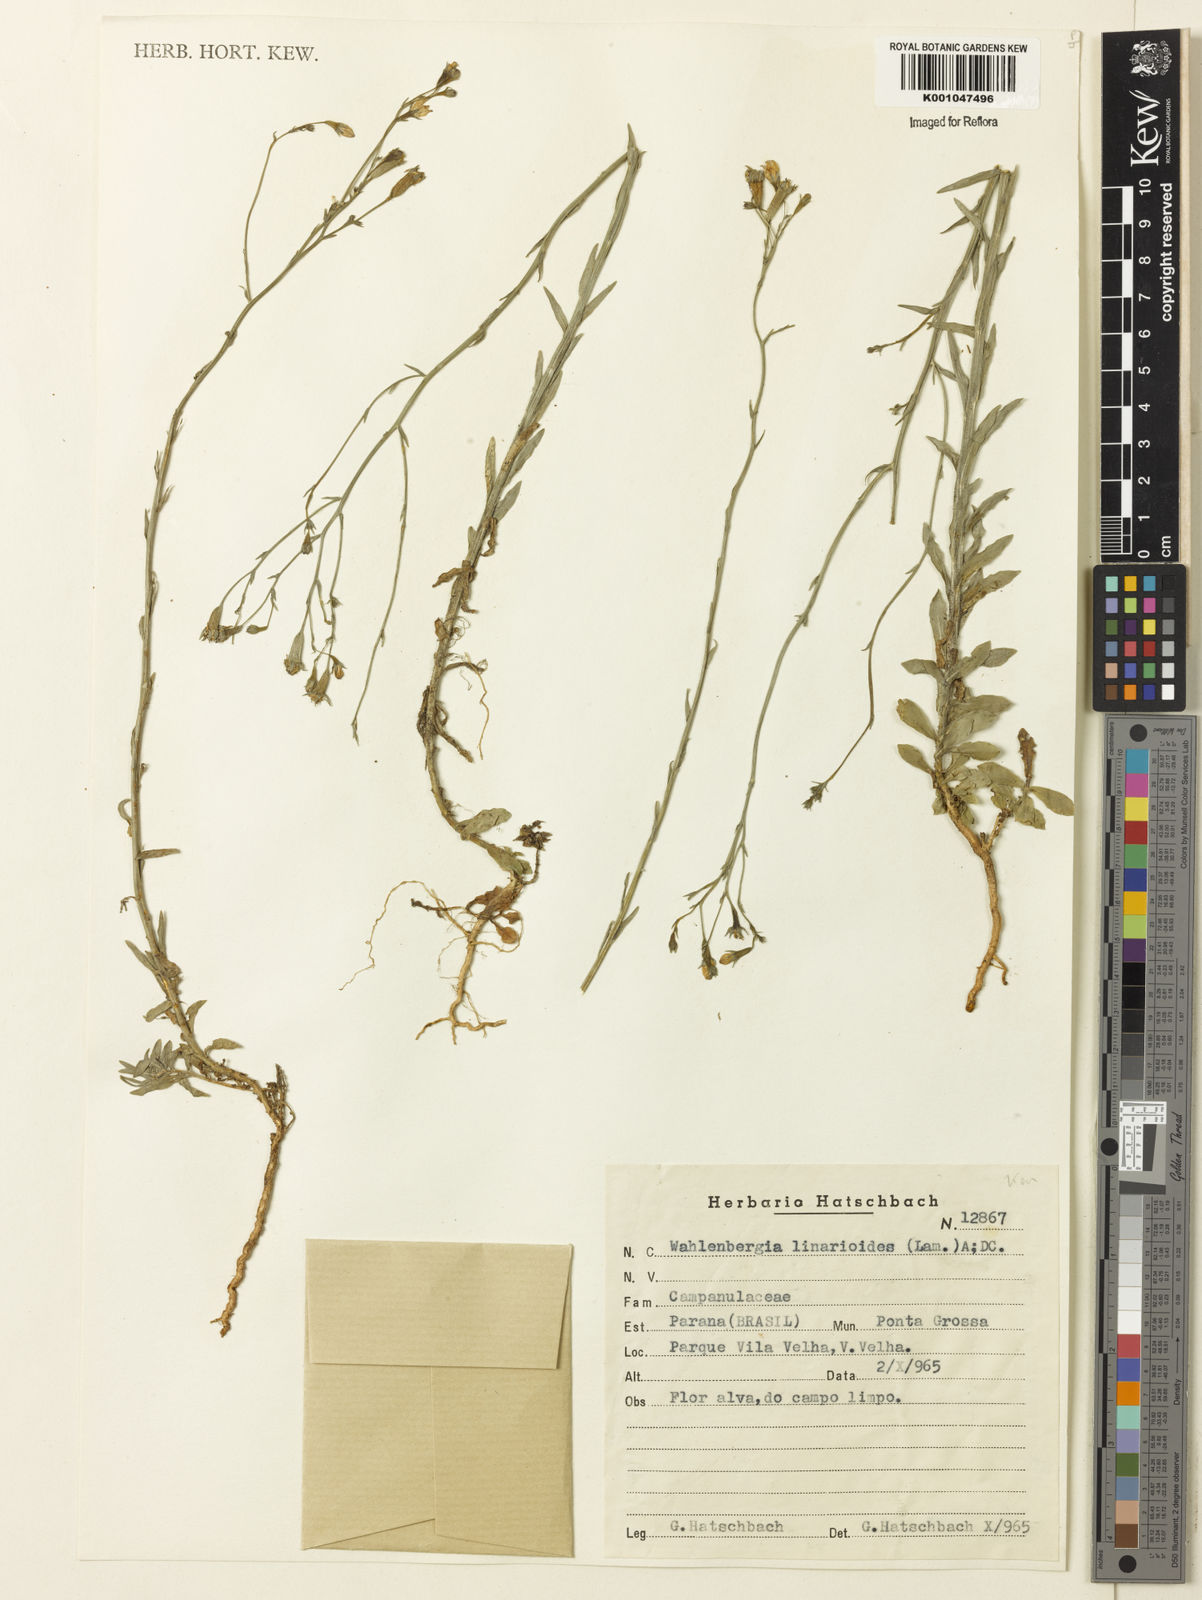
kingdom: Plantae
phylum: Tracheophyta
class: Magnoliopsida
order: Asterales
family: Campanulaceae
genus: Wahlenbergia
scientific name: Wahlenbergia linarioides
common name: Tuffybells
